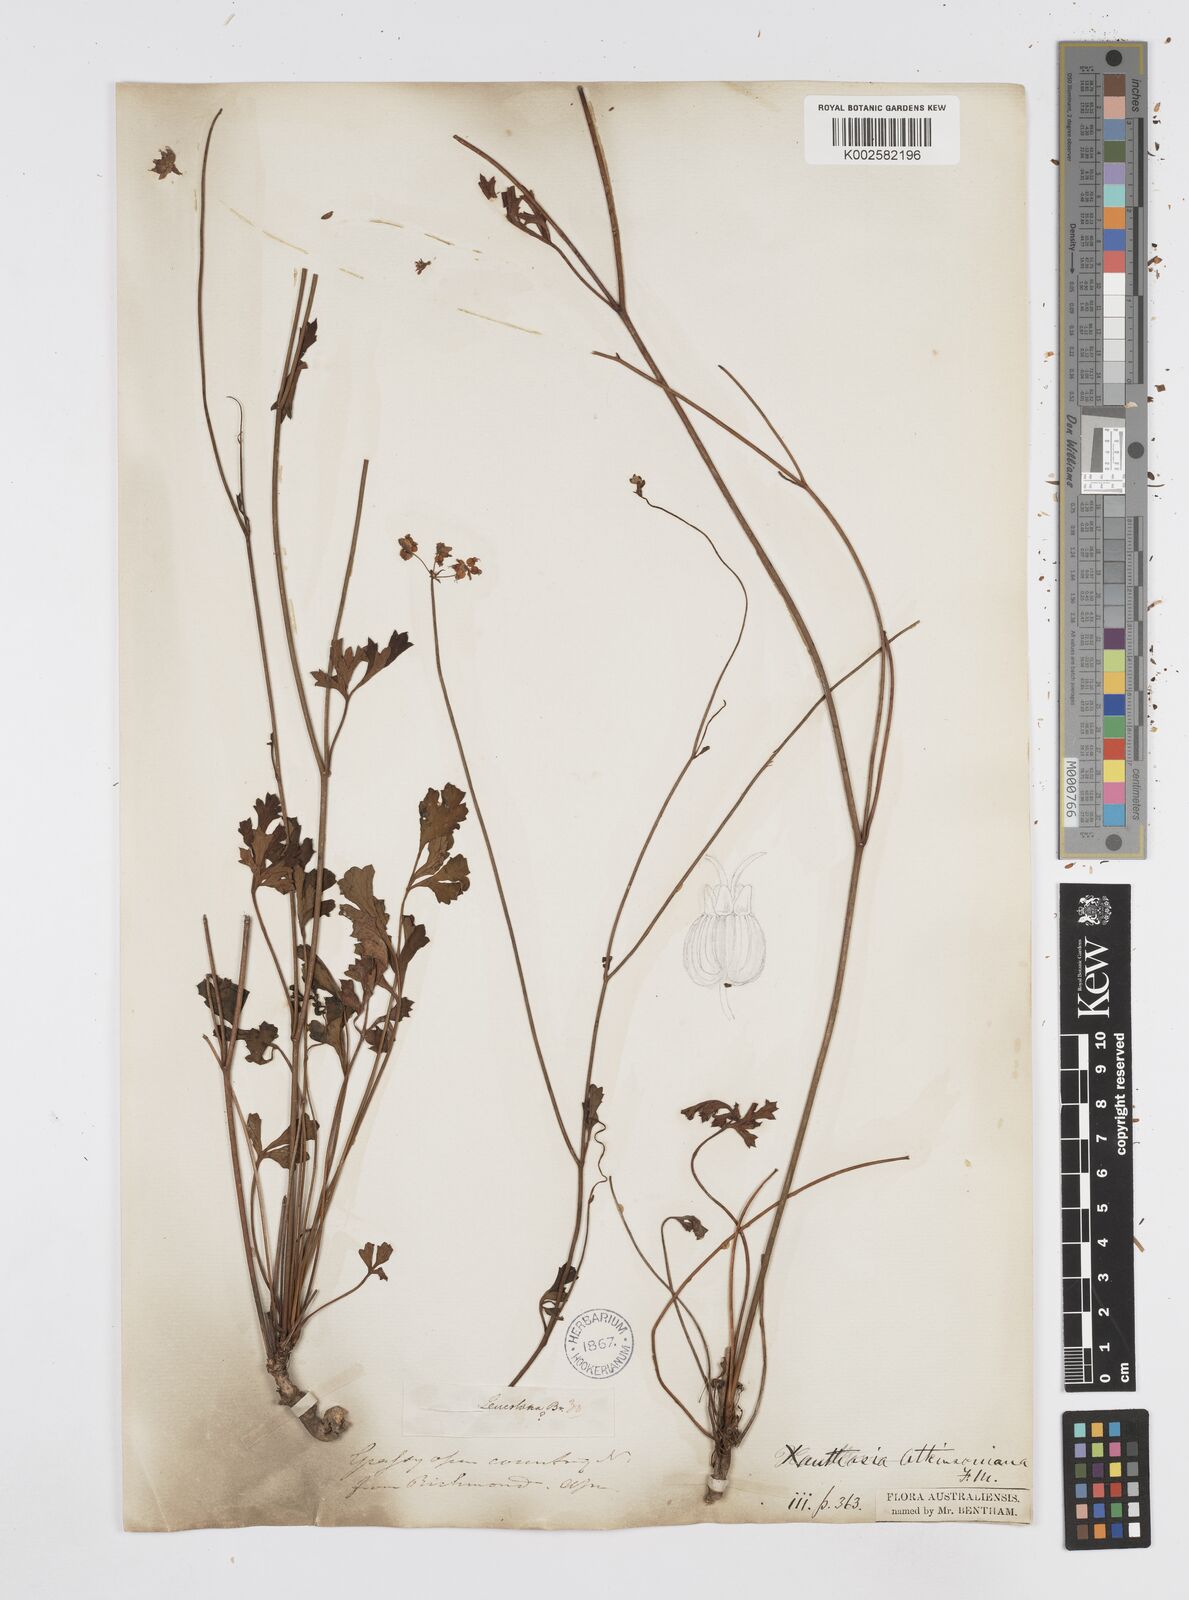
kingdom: Plantae
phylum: Tracheophyta
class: Magnoliopsida
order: Apiales
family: Apiaceae
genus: Xanthosia
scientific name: Xanthosia atkinsoniana
